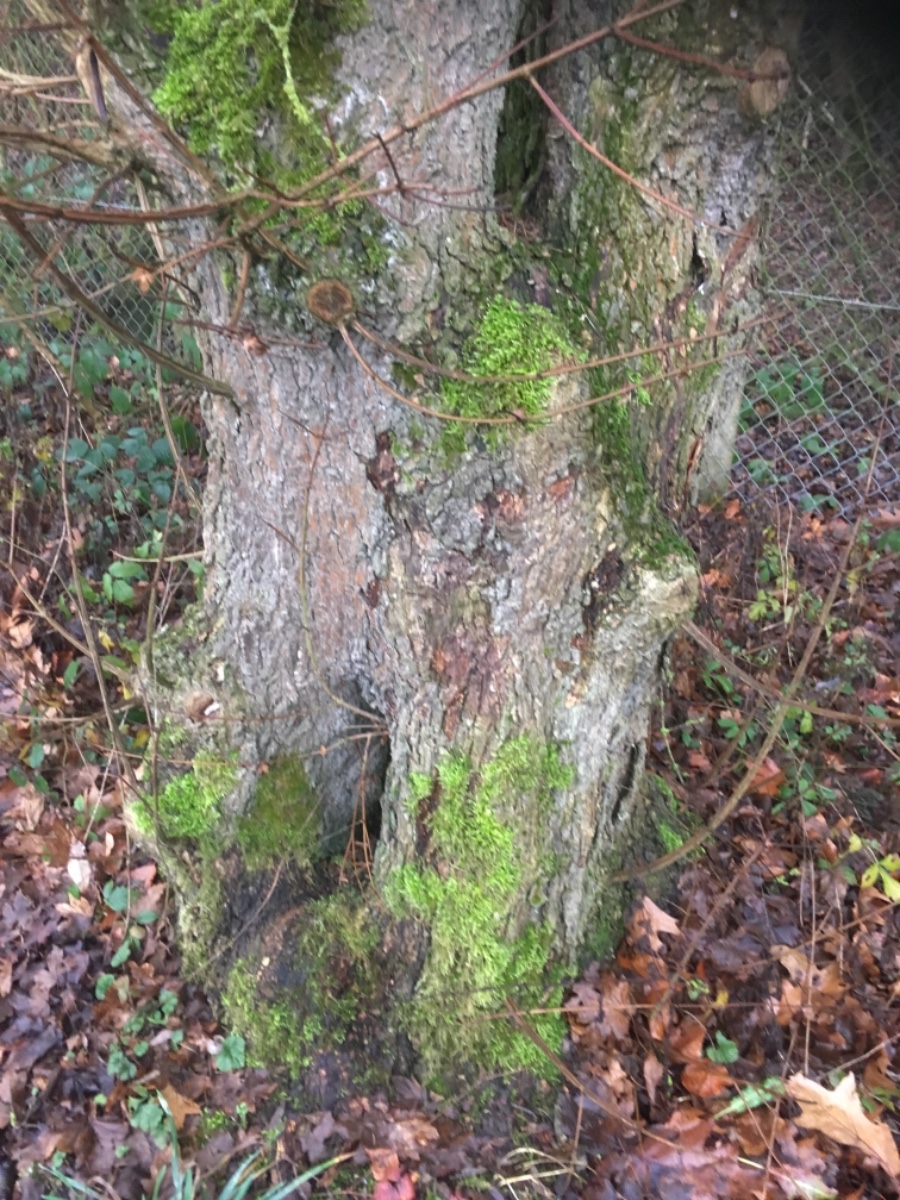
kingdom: Fungi
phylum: Basidiomycota
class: Agaricomycetes
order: Agaricales
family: Porotheleaceae
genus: Phloeomana
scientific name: Phloeomana
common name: huesvamp
